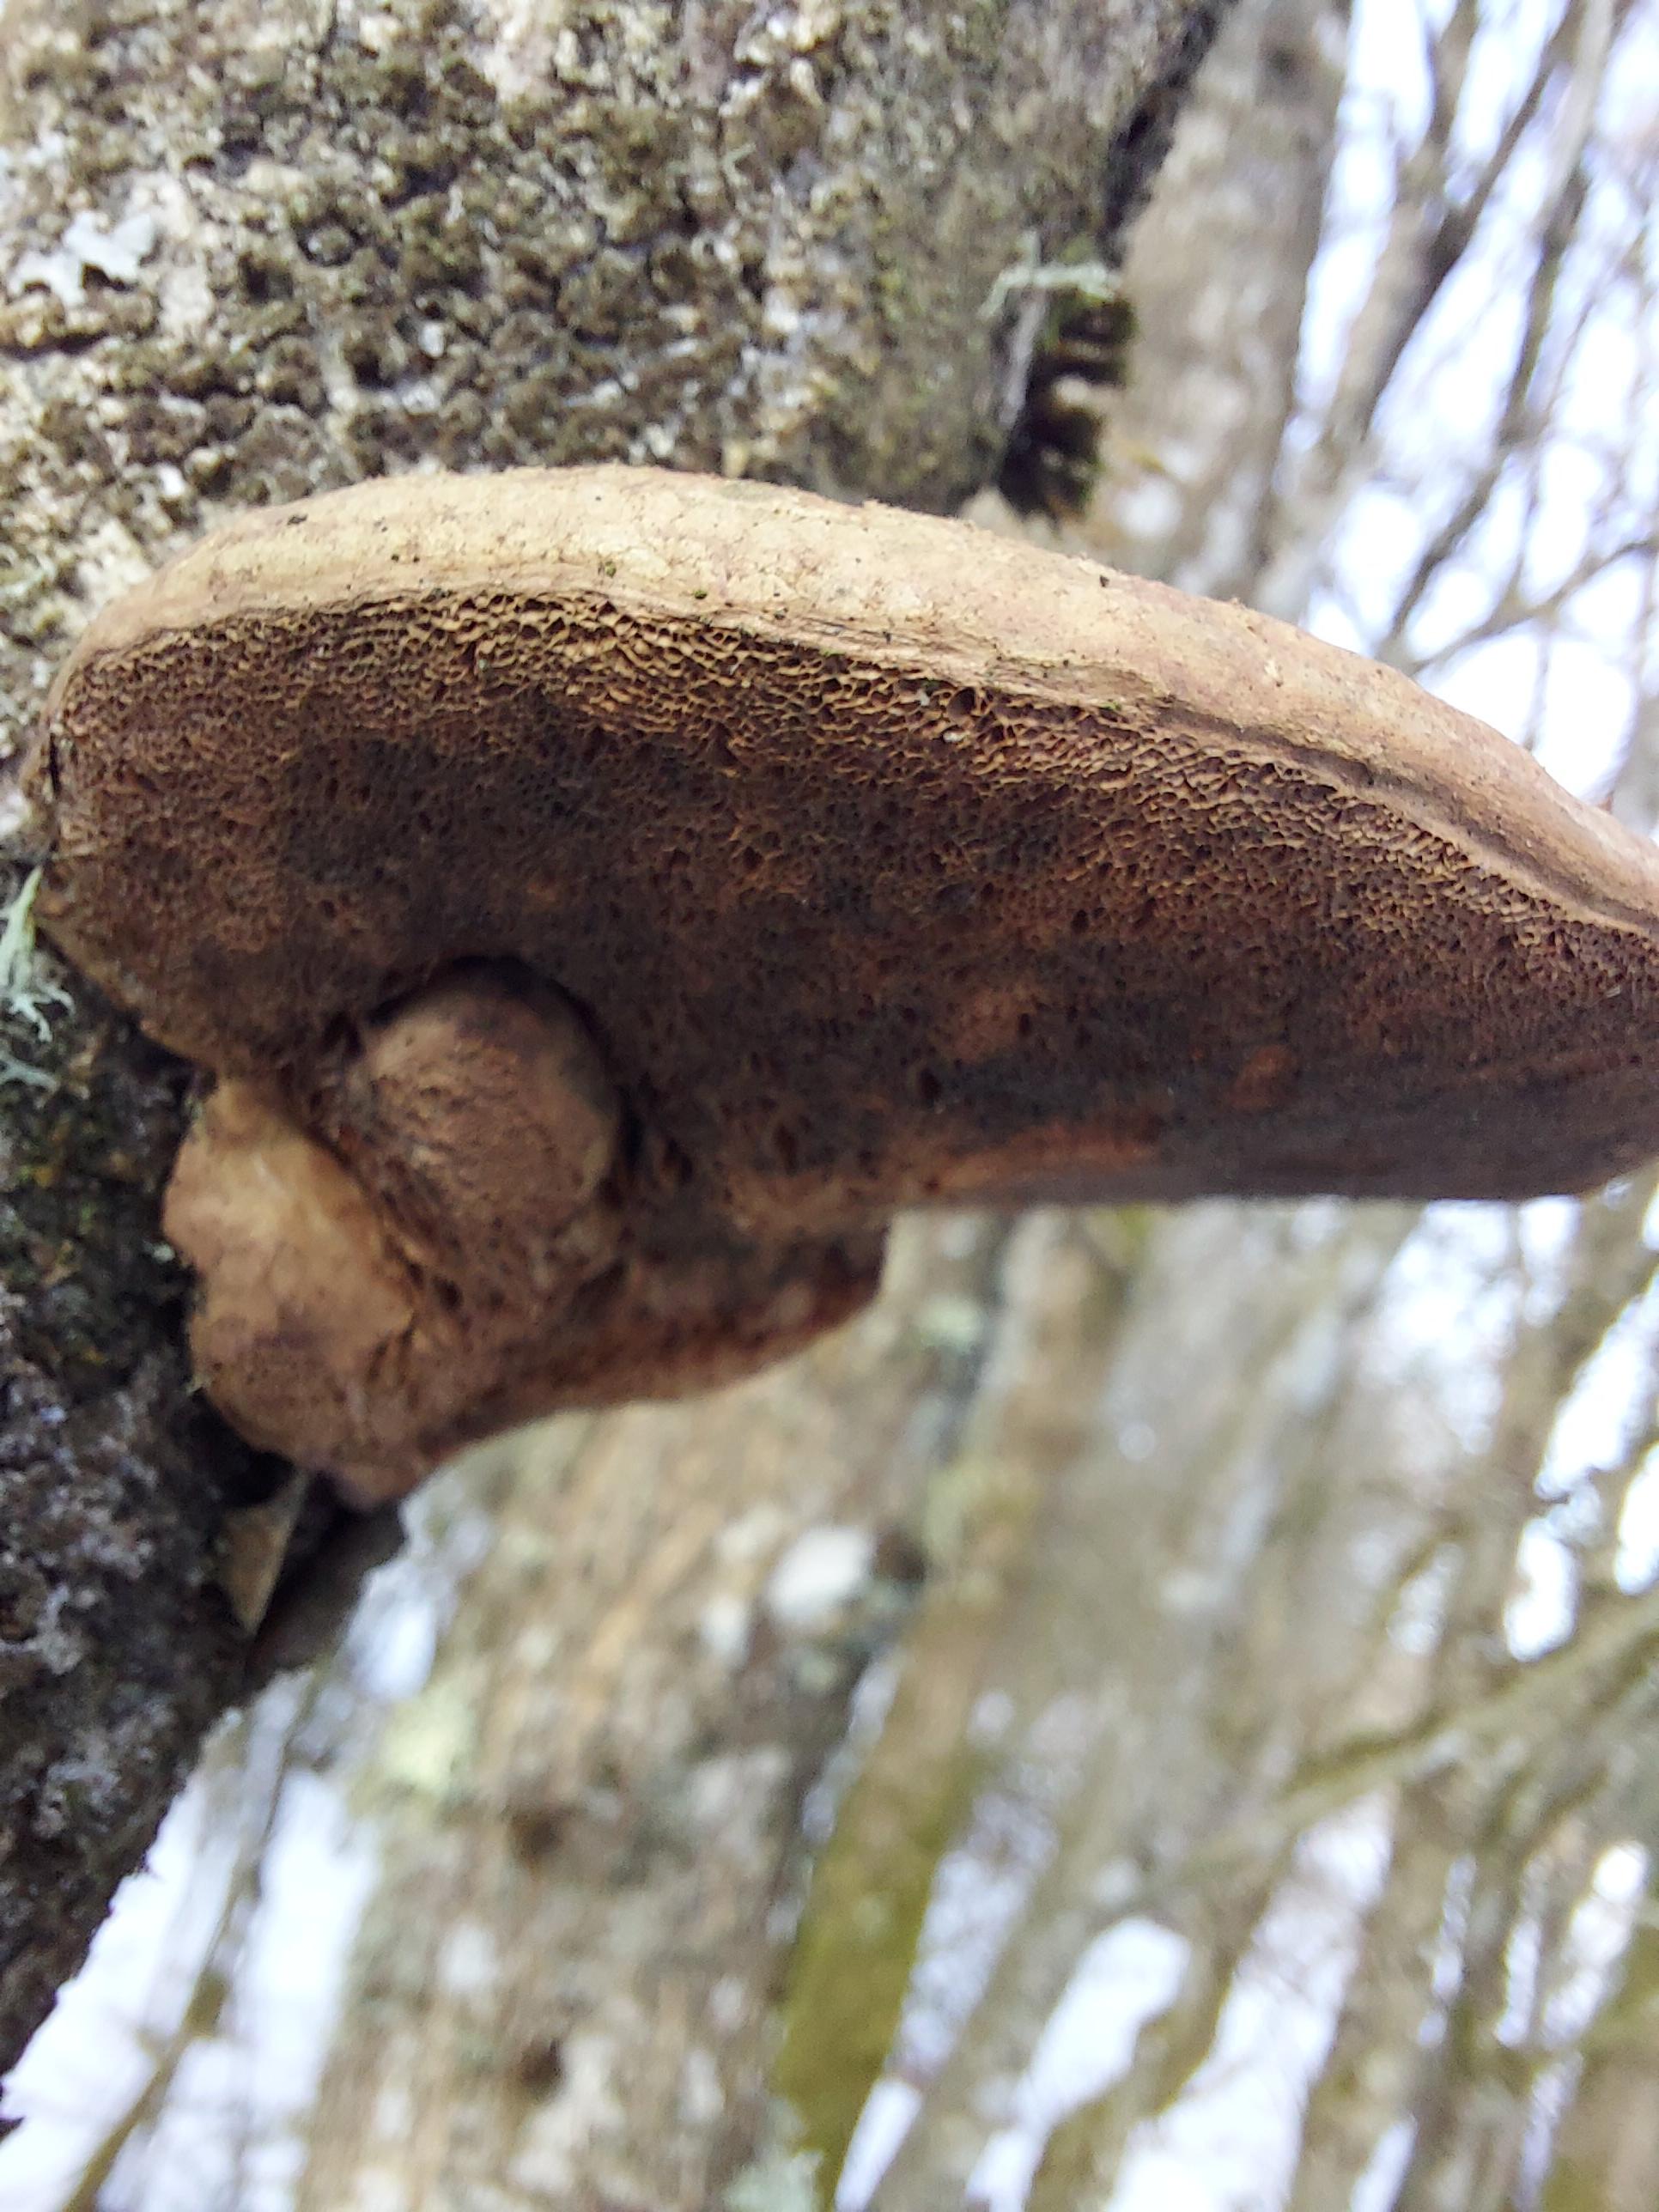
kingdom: Fungi
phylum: Basidiomycota
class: Agaricomycetes
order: Polyporales
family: Phanerochaetaceae
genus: Hapalopilus
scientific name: Hapalopilus rutilans
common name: rødlig okkerporesvamp
